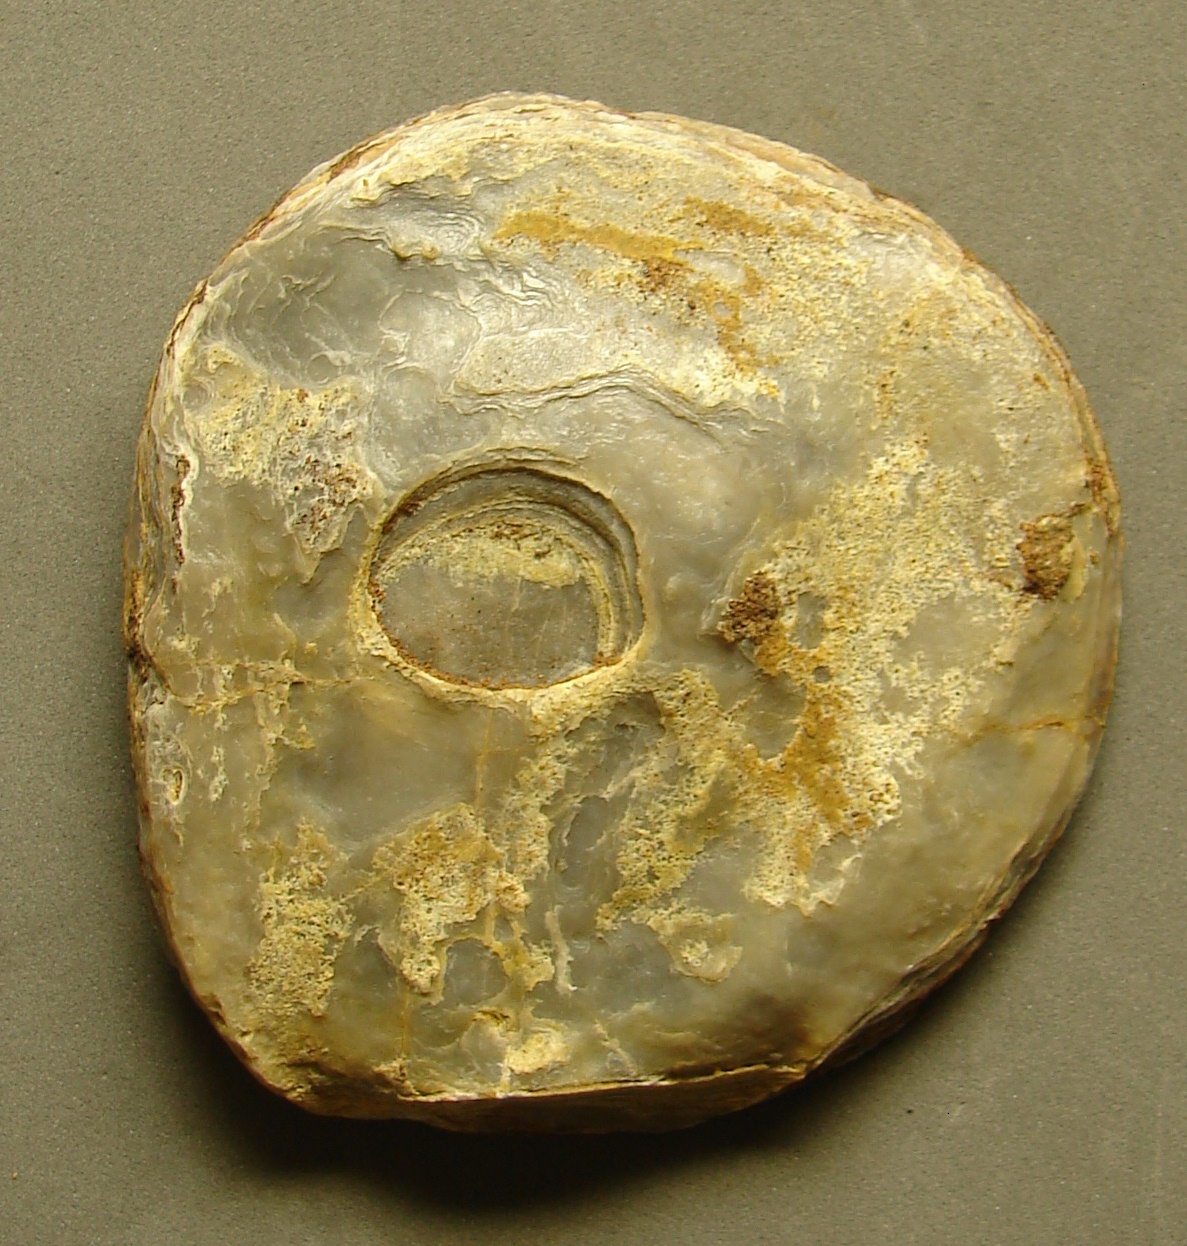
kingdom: Animalia
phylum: Mollusca
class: Bivalvia
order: Ostreida
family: Gryphaeidae
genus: Gryphaea
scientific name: Gryphaea
